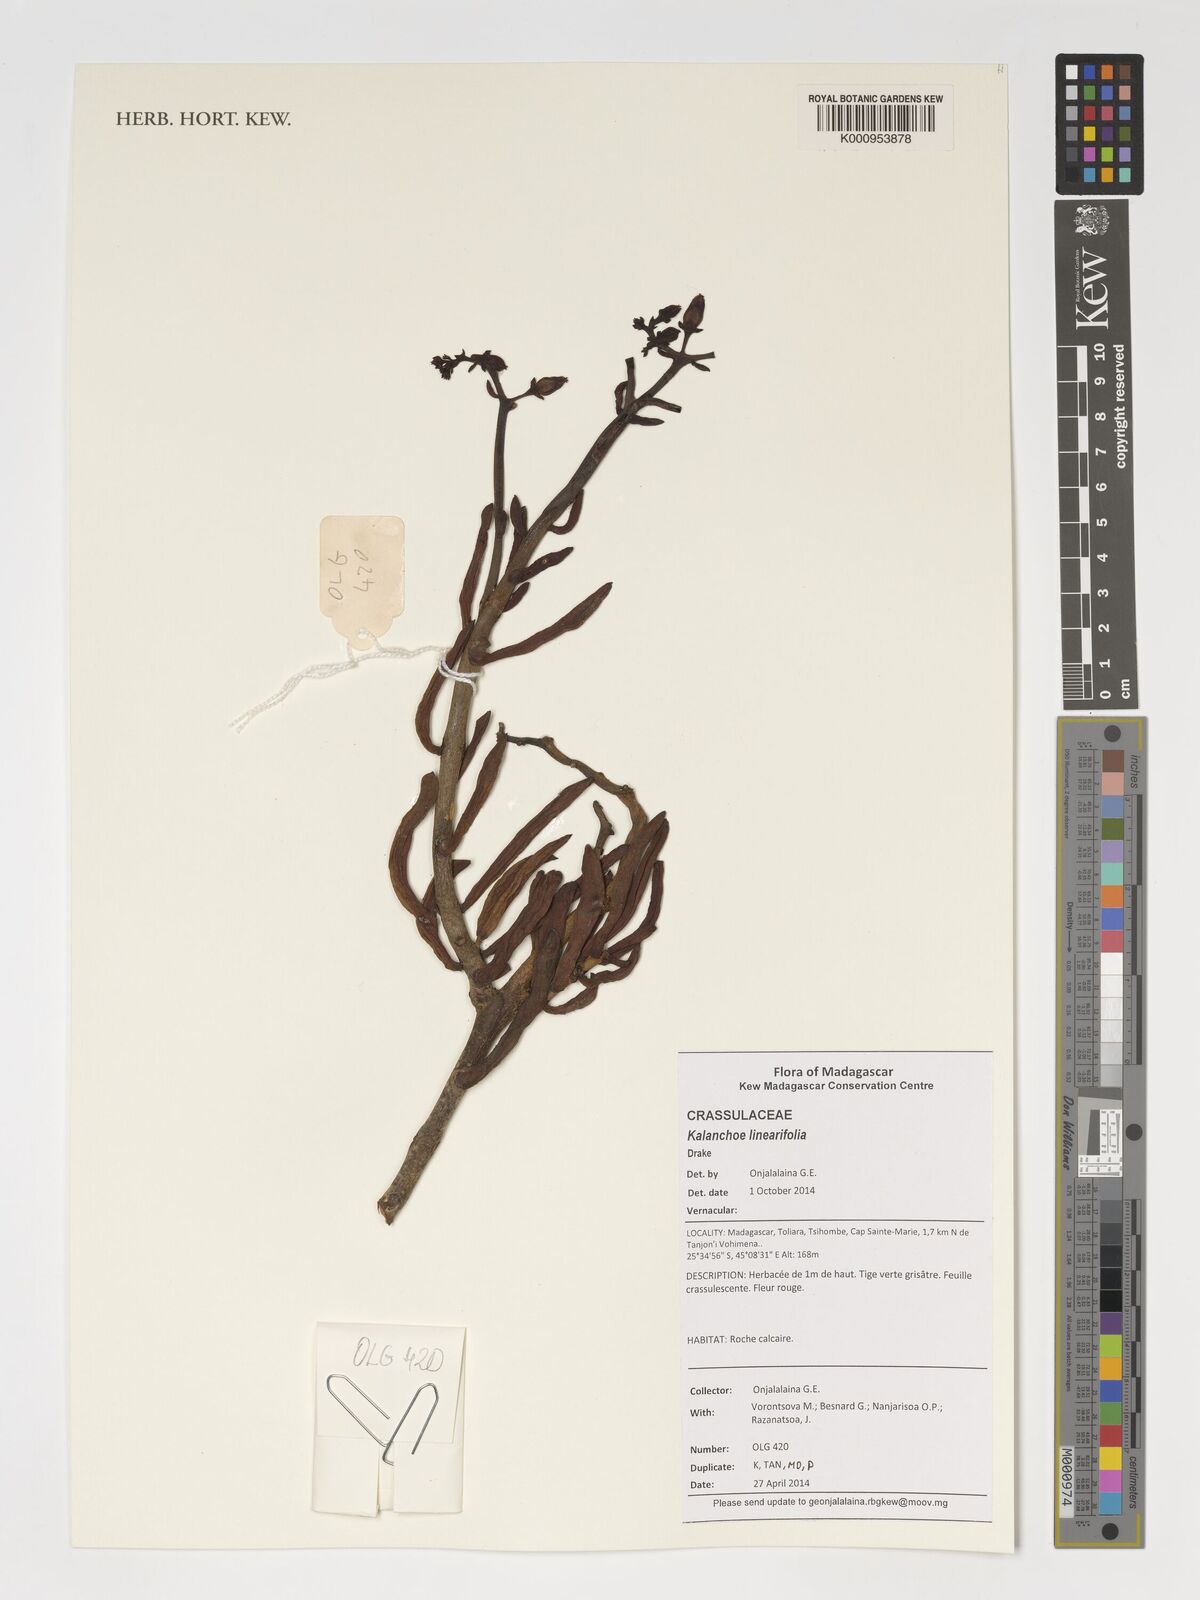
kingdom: Plantae
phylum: Tracheophyta
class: Magnoliopsida
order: Saxifragales
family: Crassulaceae
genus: Kalanchoe
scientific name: Kalanchoe linearifolia
